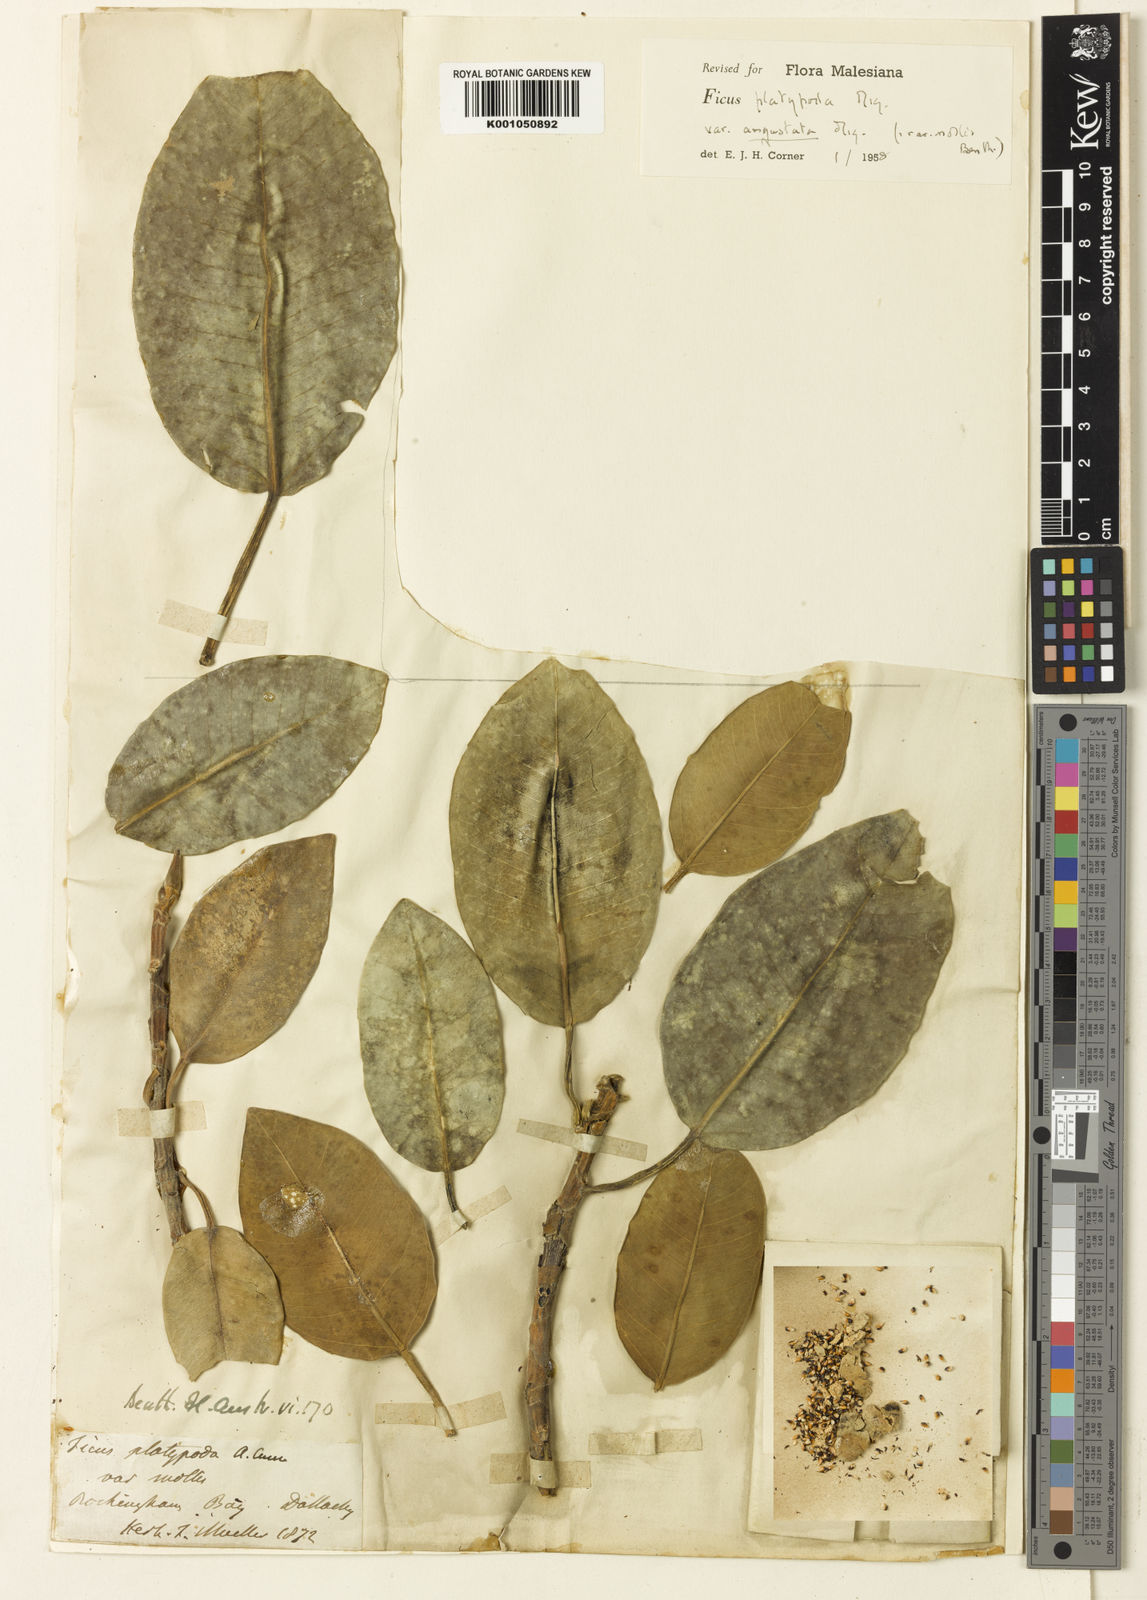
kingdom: Plantae
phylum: Tracheophyta
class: Magnoliopsida
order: Rosales
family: Moraceae
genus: Ficus
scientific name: Ficus tinctoria
